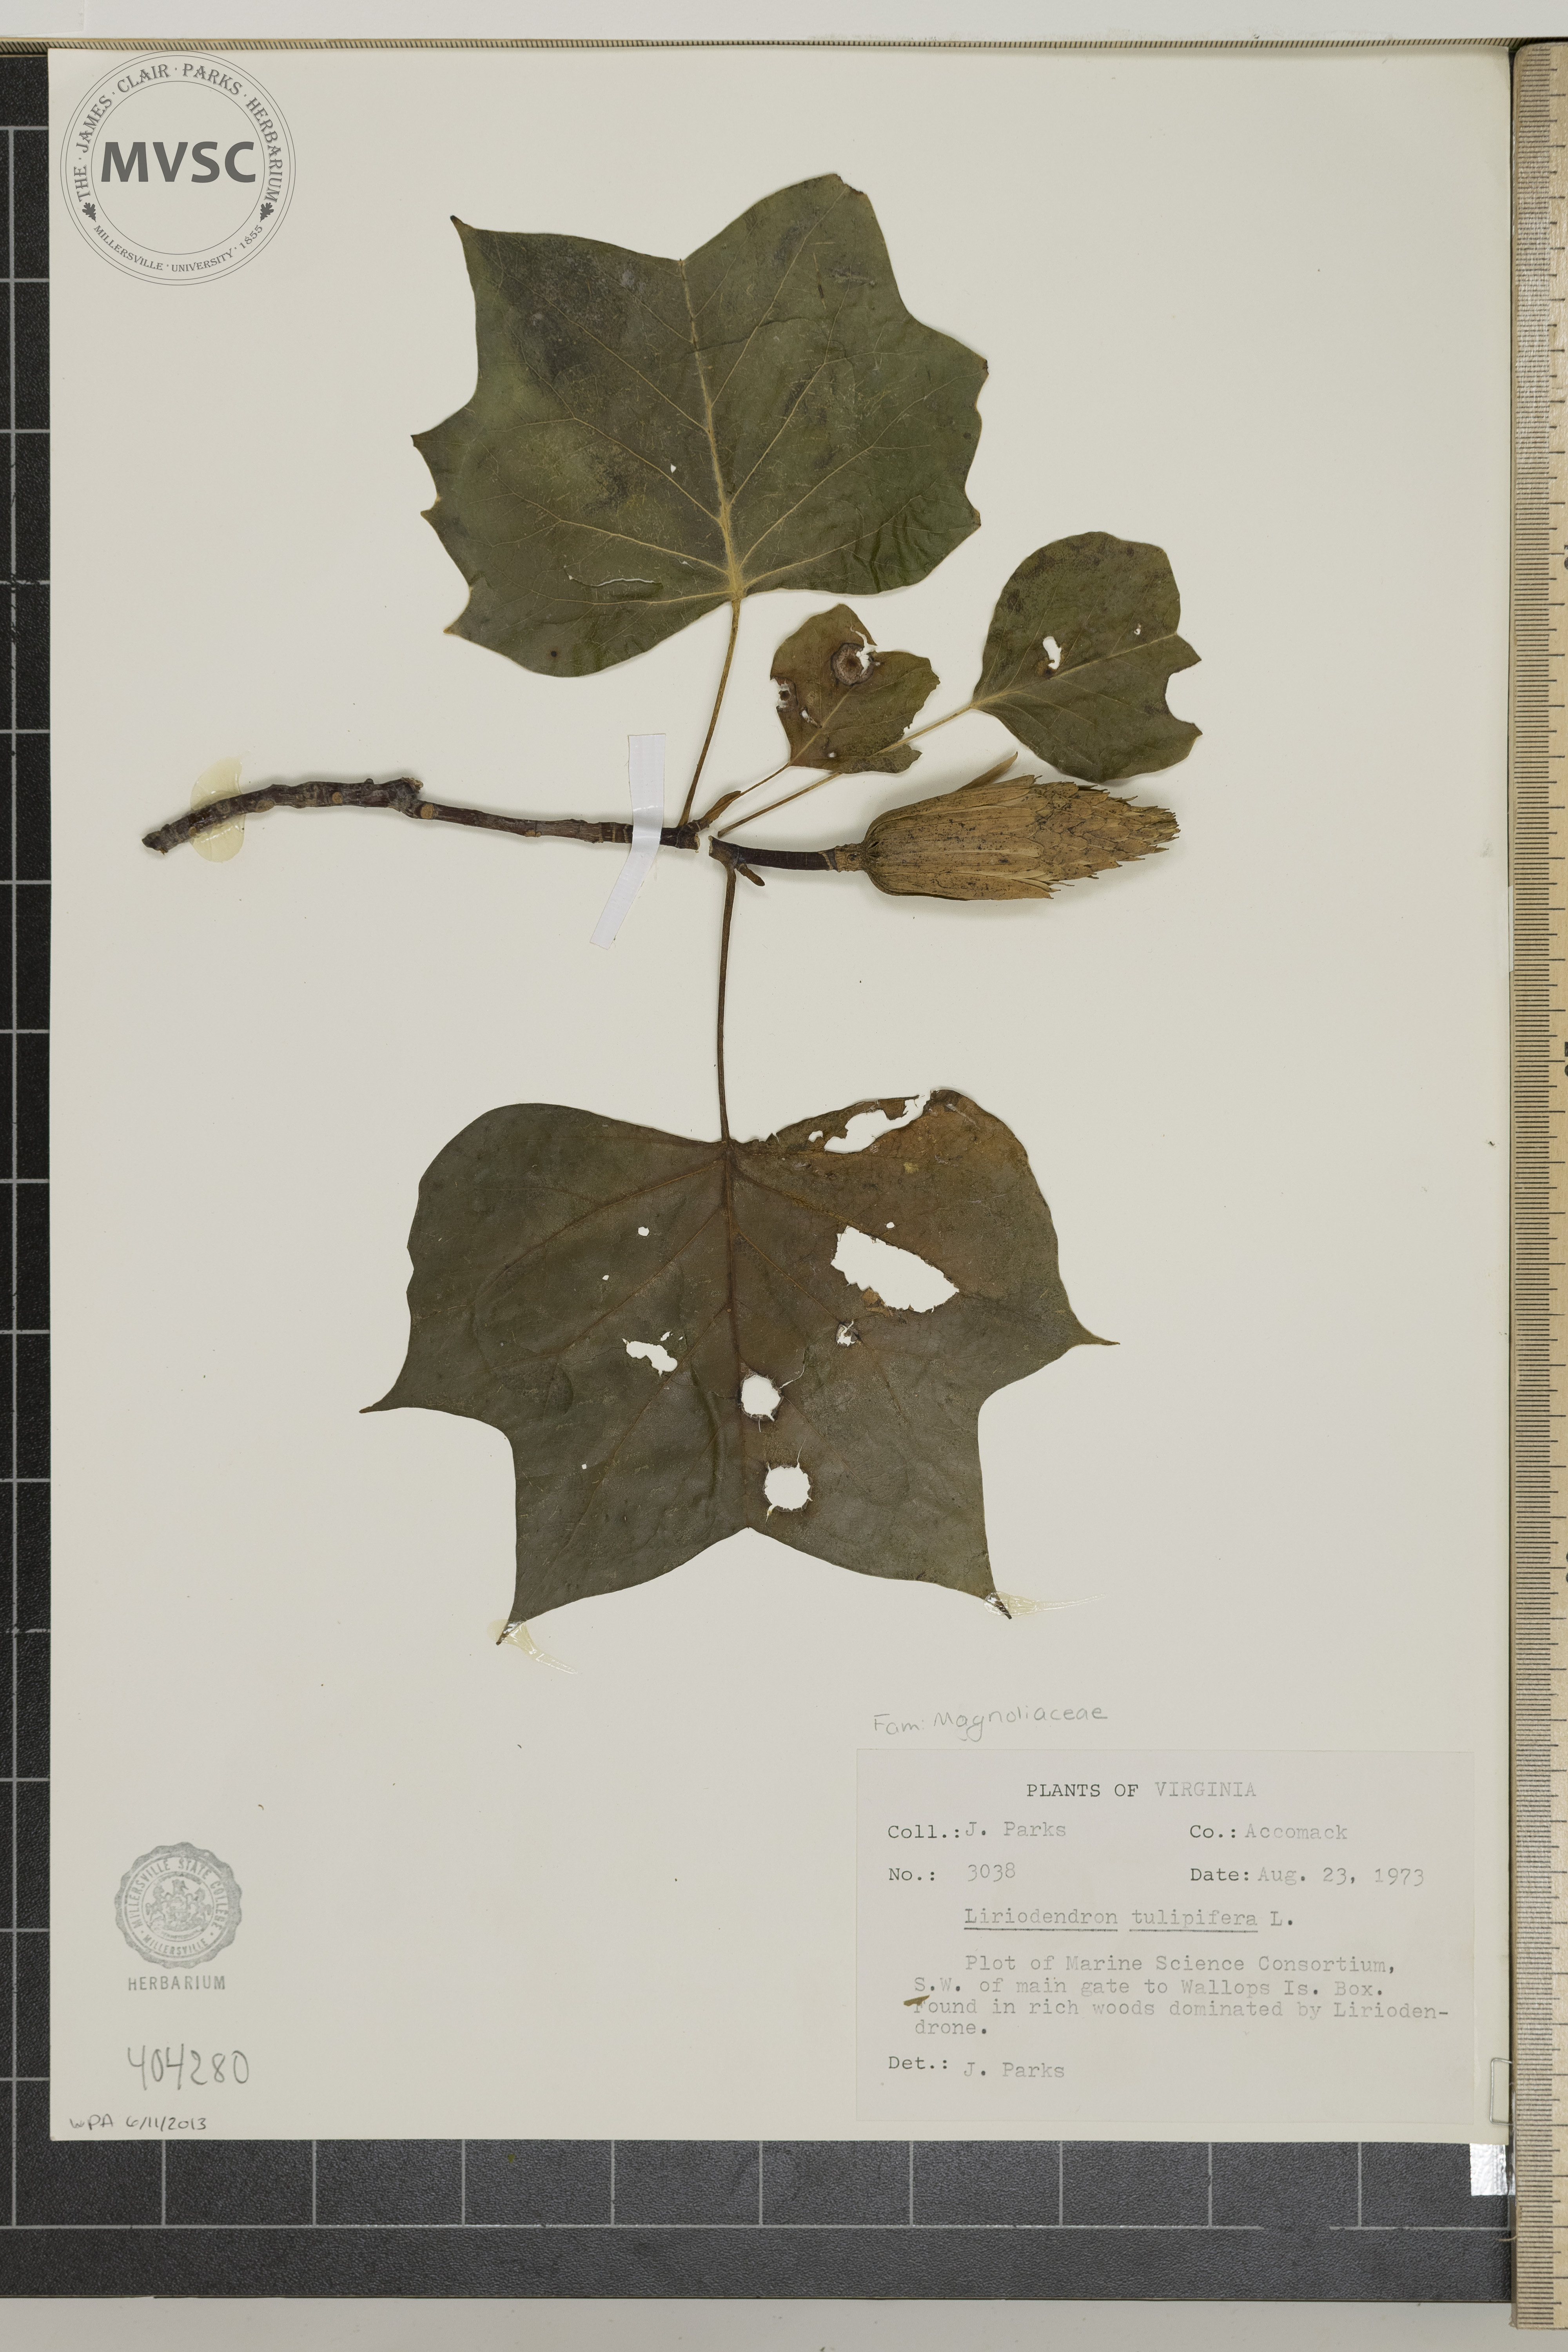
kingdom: Plantae
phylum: Tracheophyta
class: Magnoliopsida
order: Magnoliales
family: Magnoliaceae
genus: Liriodendron
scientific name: Liriodendron tulipifera
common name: Tulip tree
